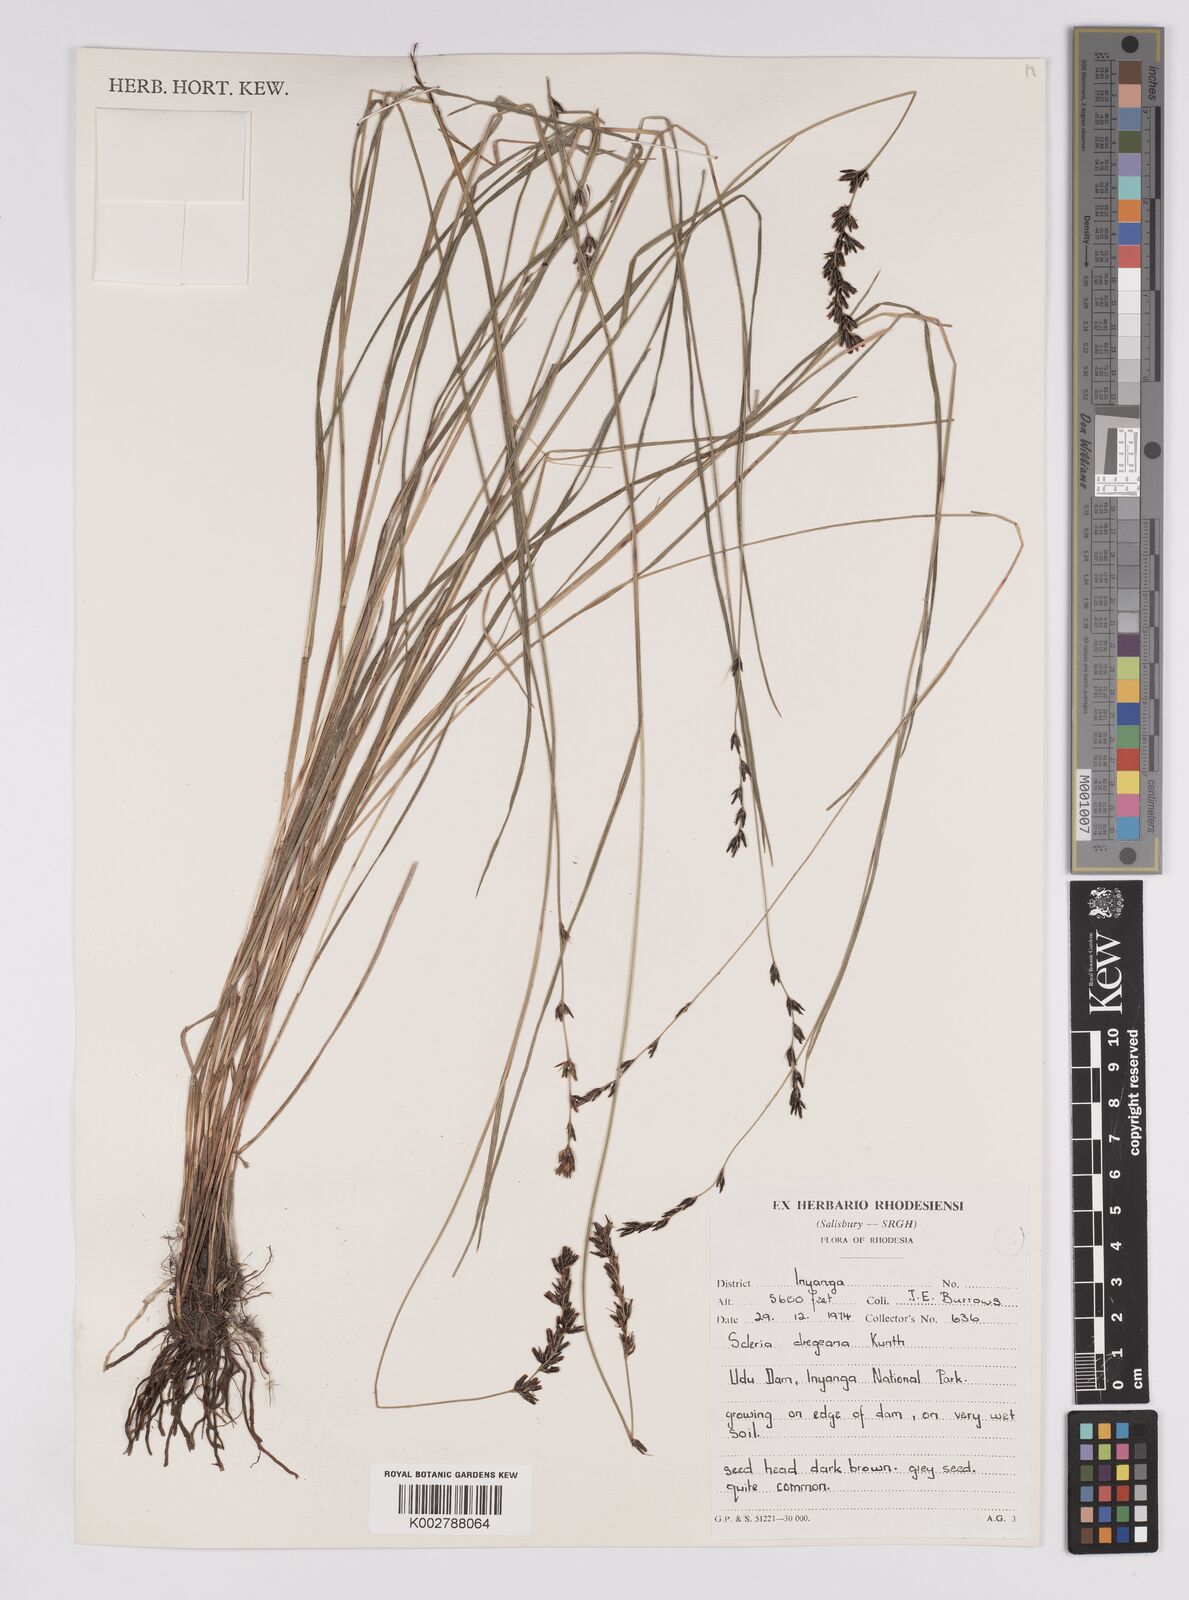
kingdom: Plantae
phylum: Tracheophyta
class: Liliopsida
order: Poales
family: Cyperaceae
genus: Scleria
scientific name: Scleria dregeana
